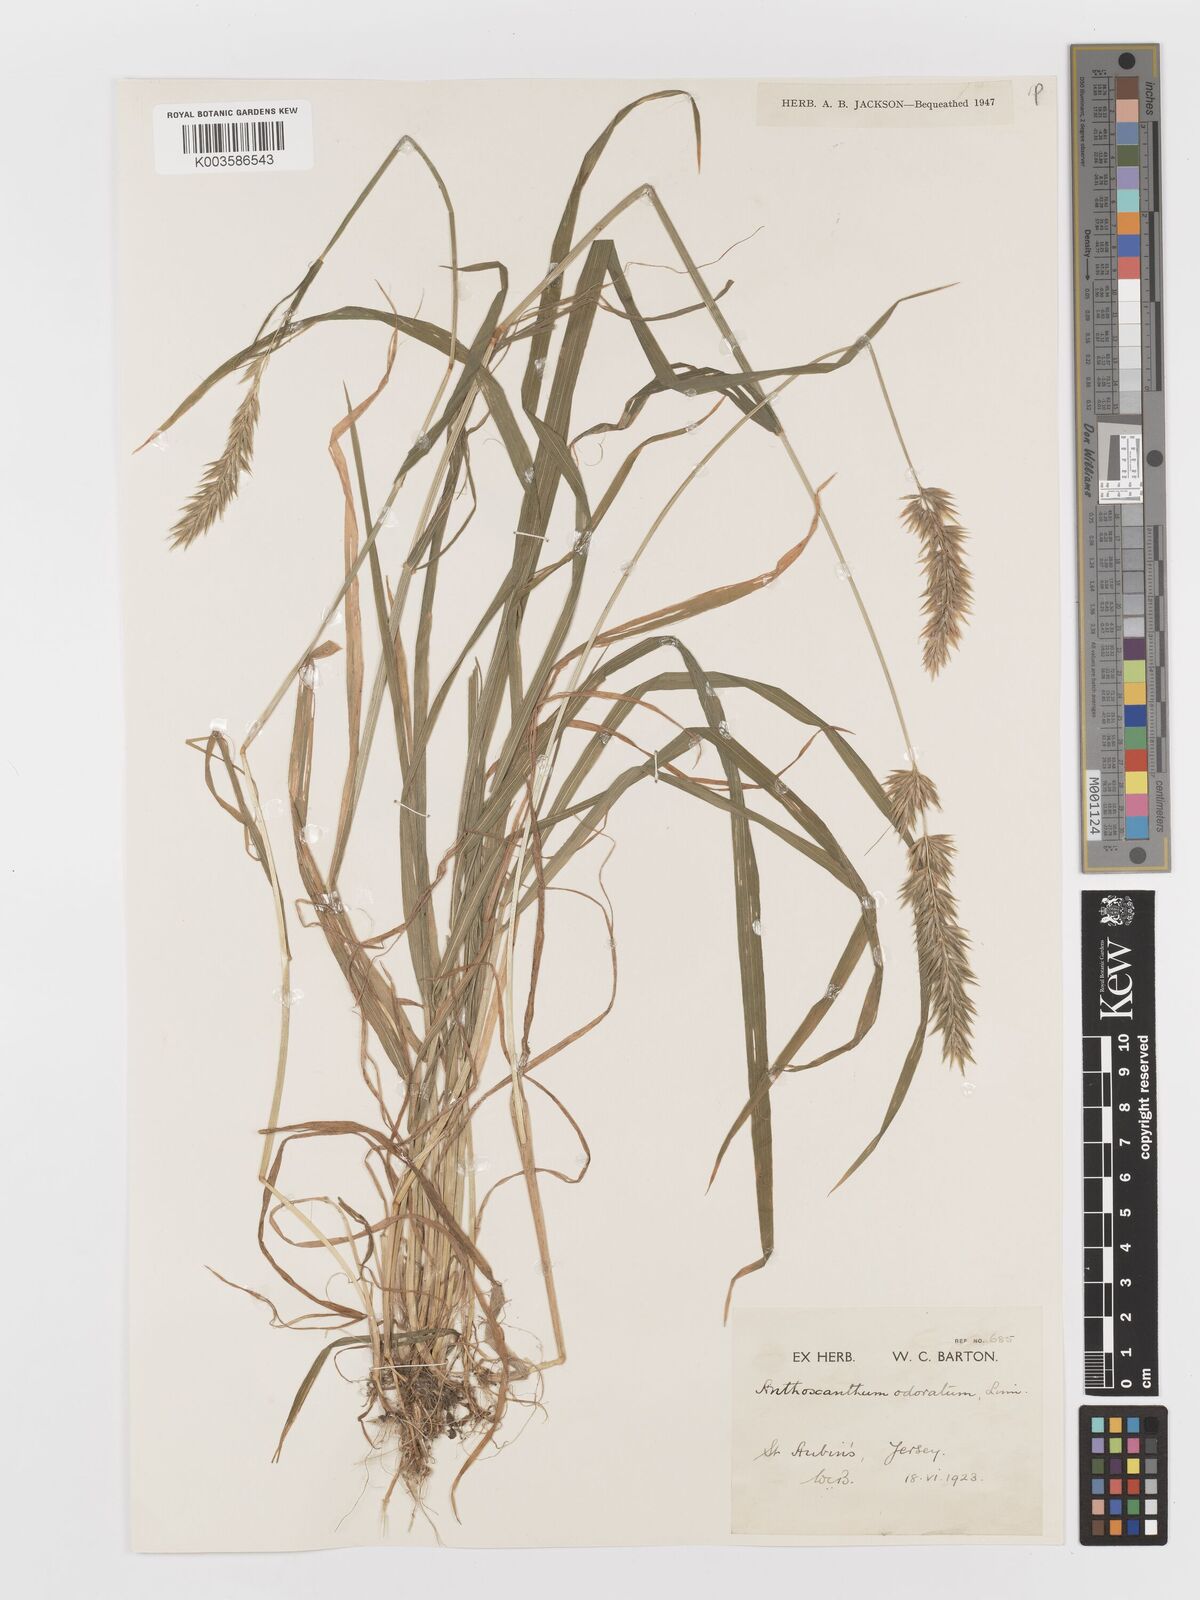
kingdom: Plantae
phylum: Tracheophyta
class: Liliopsida
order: Poales
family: Poaceae
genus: Anthoxanthum
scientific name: Anthoxanthum odoratum
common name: Sweet vernalgrass
